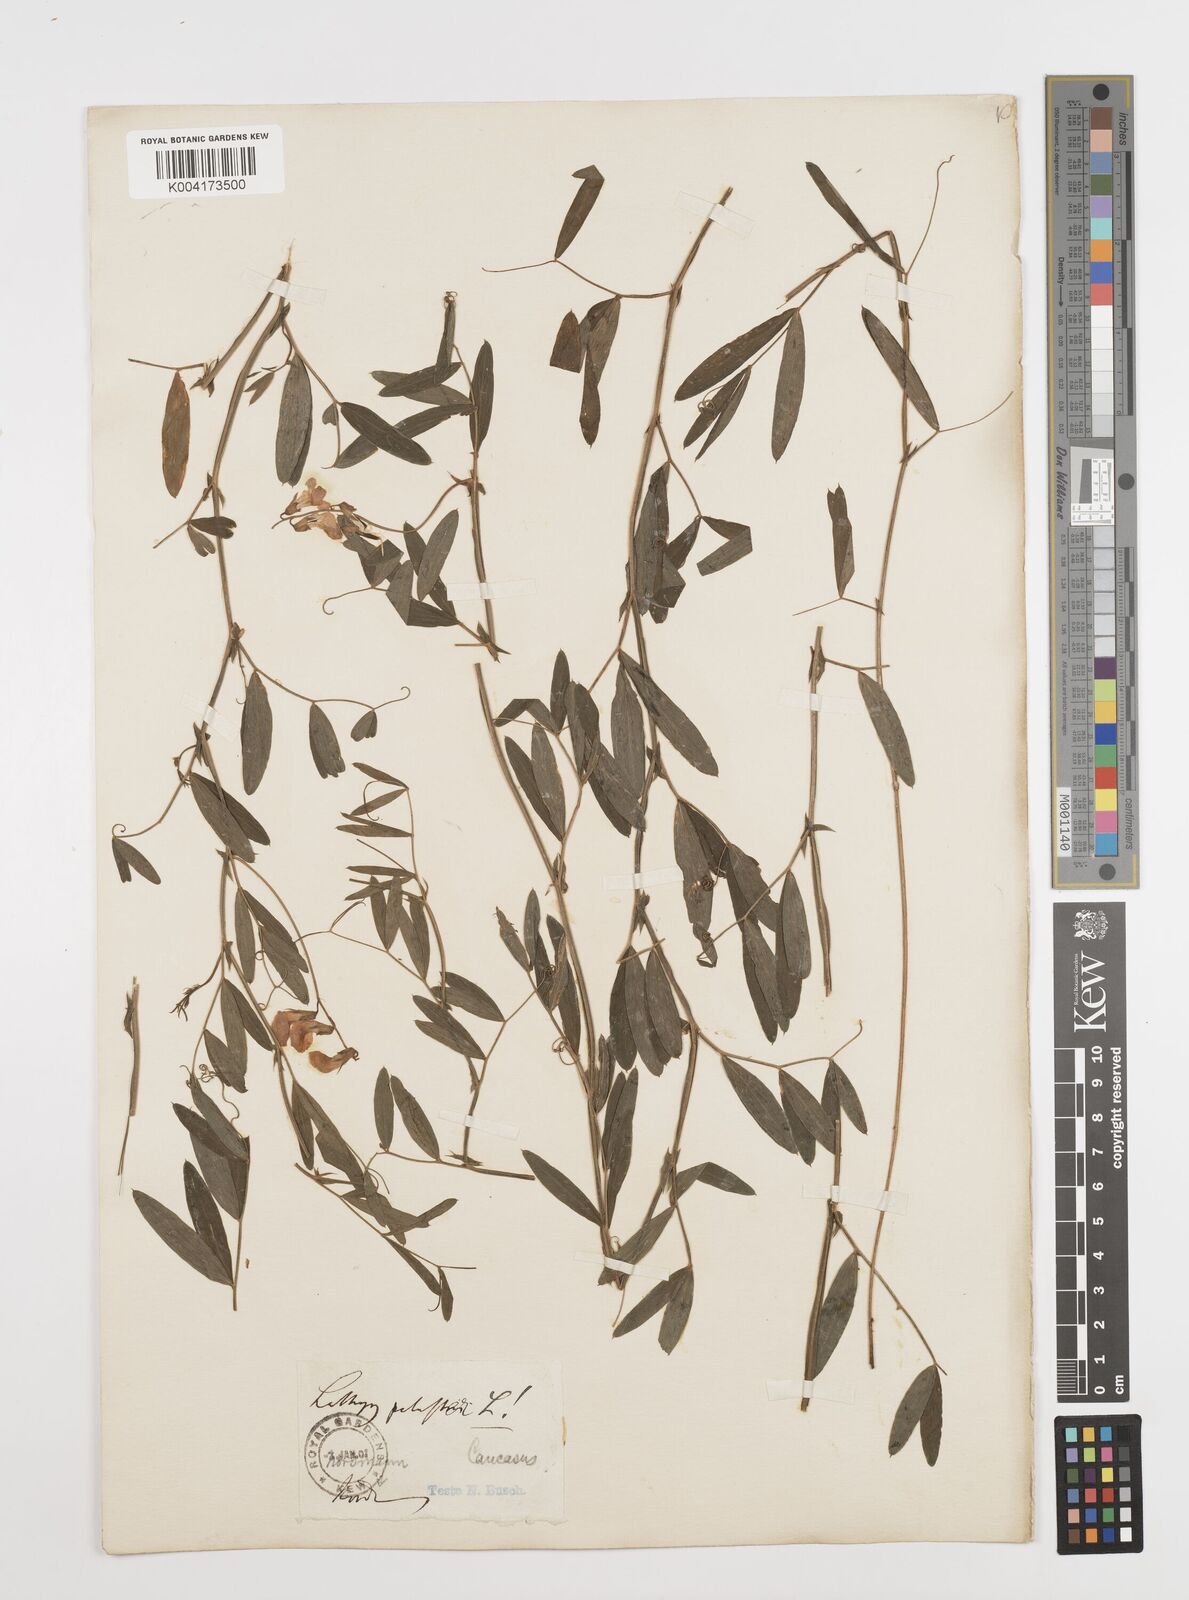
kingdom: Plantae
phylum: Tracheophyta
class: Magnoliopsida
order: Fabales
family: Fabaceae
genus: Lathyrus
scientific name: Lathyrus palustris
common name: Marsh pea
